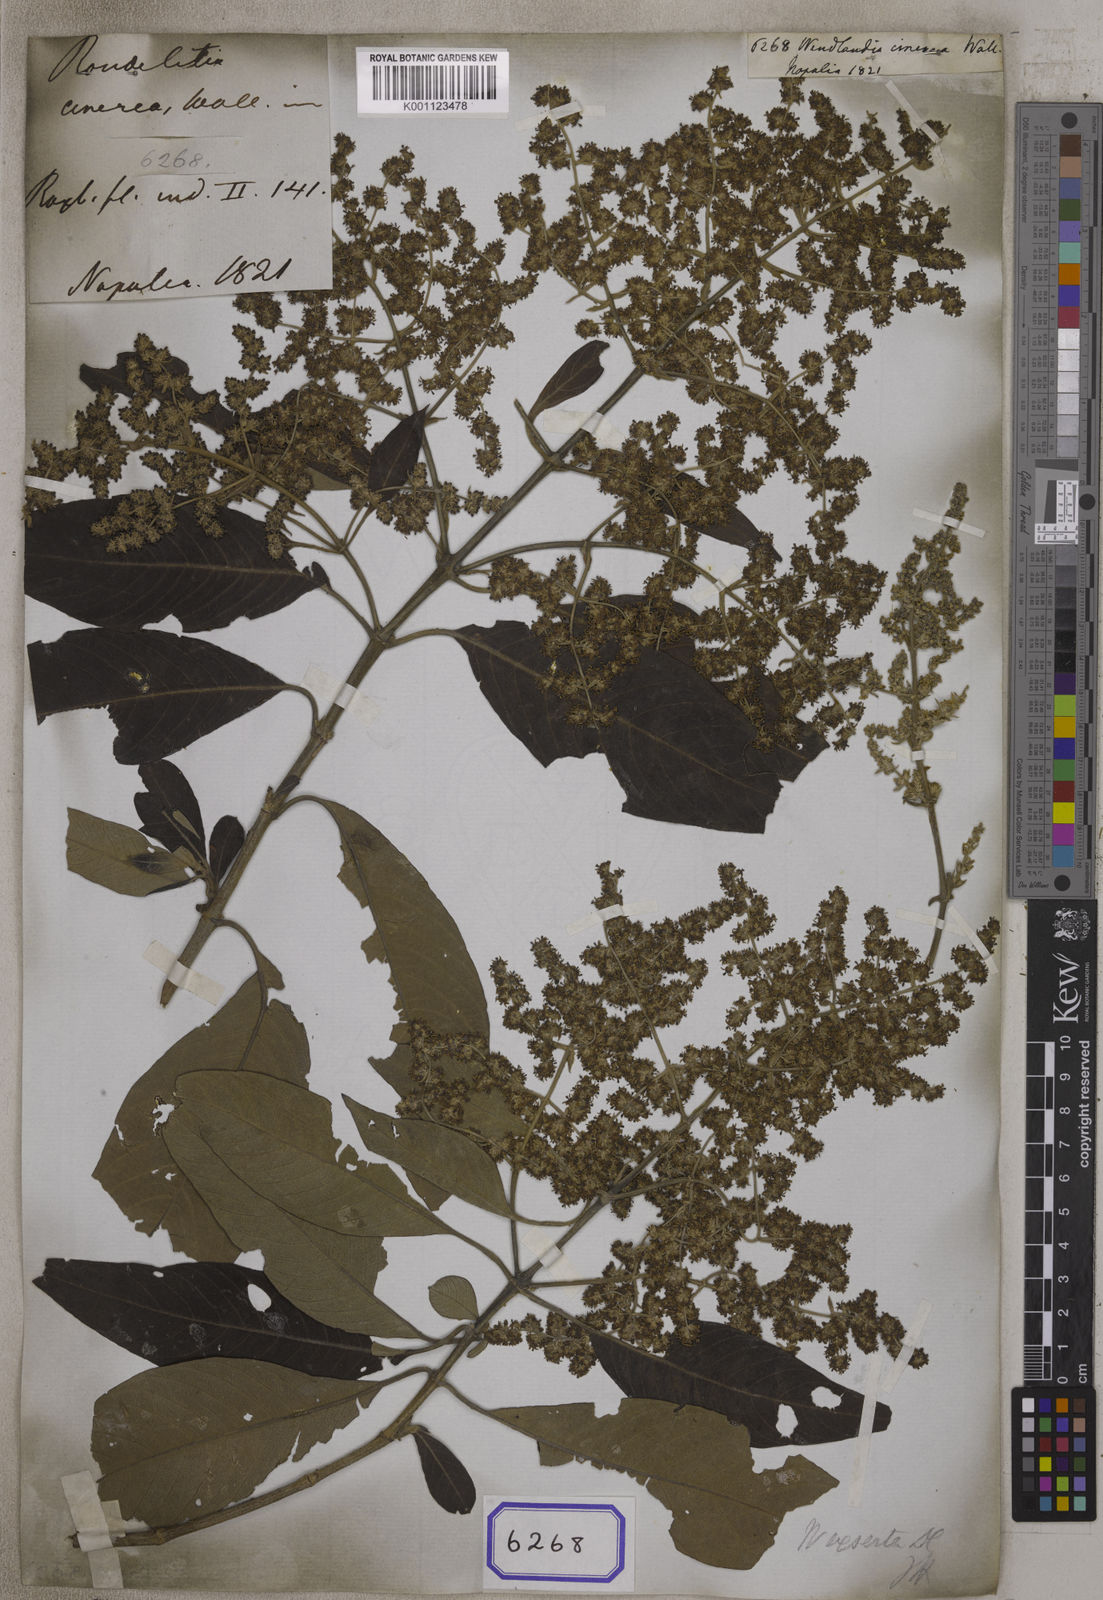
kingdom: Plantae
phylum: Tracheophyta
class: Magnoliopsida
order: Gentianales
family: Rubiaceae
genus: Wendlandia
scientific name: Wendlandia heynei
